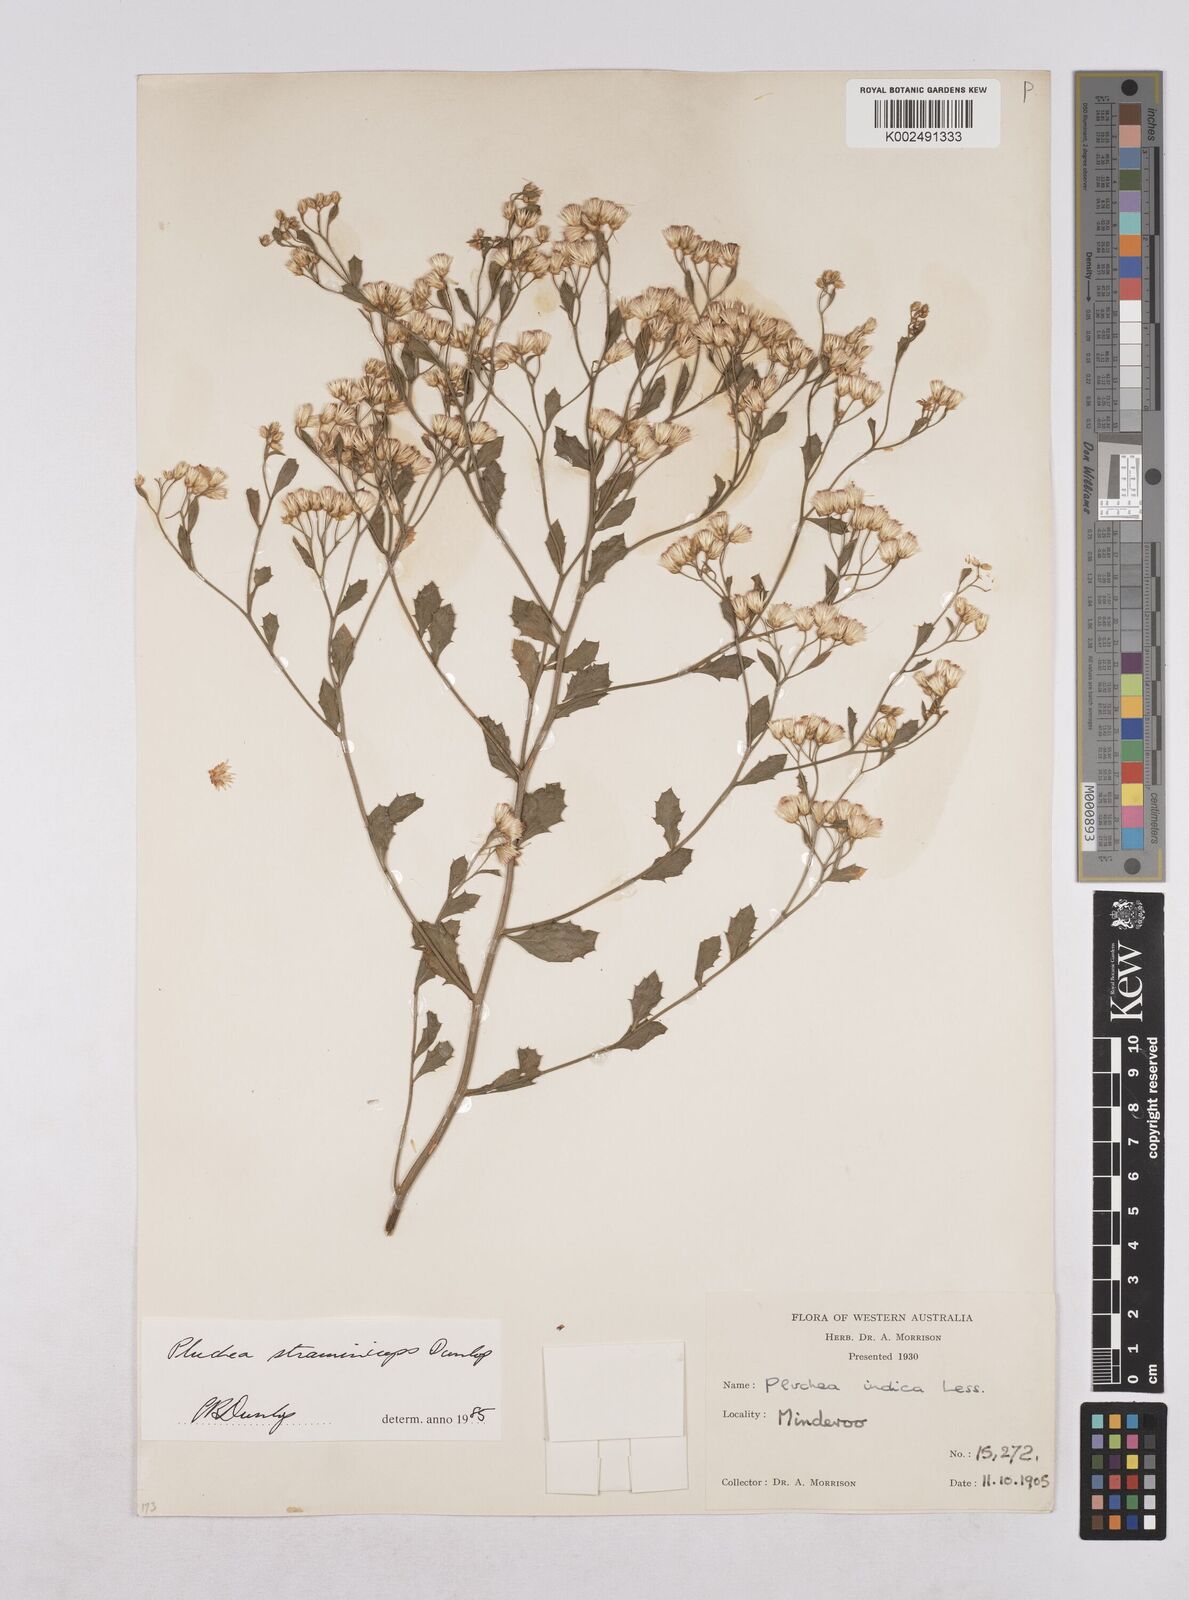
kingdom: Plantae
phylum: Tracheophyta
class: Magnoliopsida
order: Asterales
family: Asteraceae
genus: Pluchea
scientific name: Pluchea dunlopii
